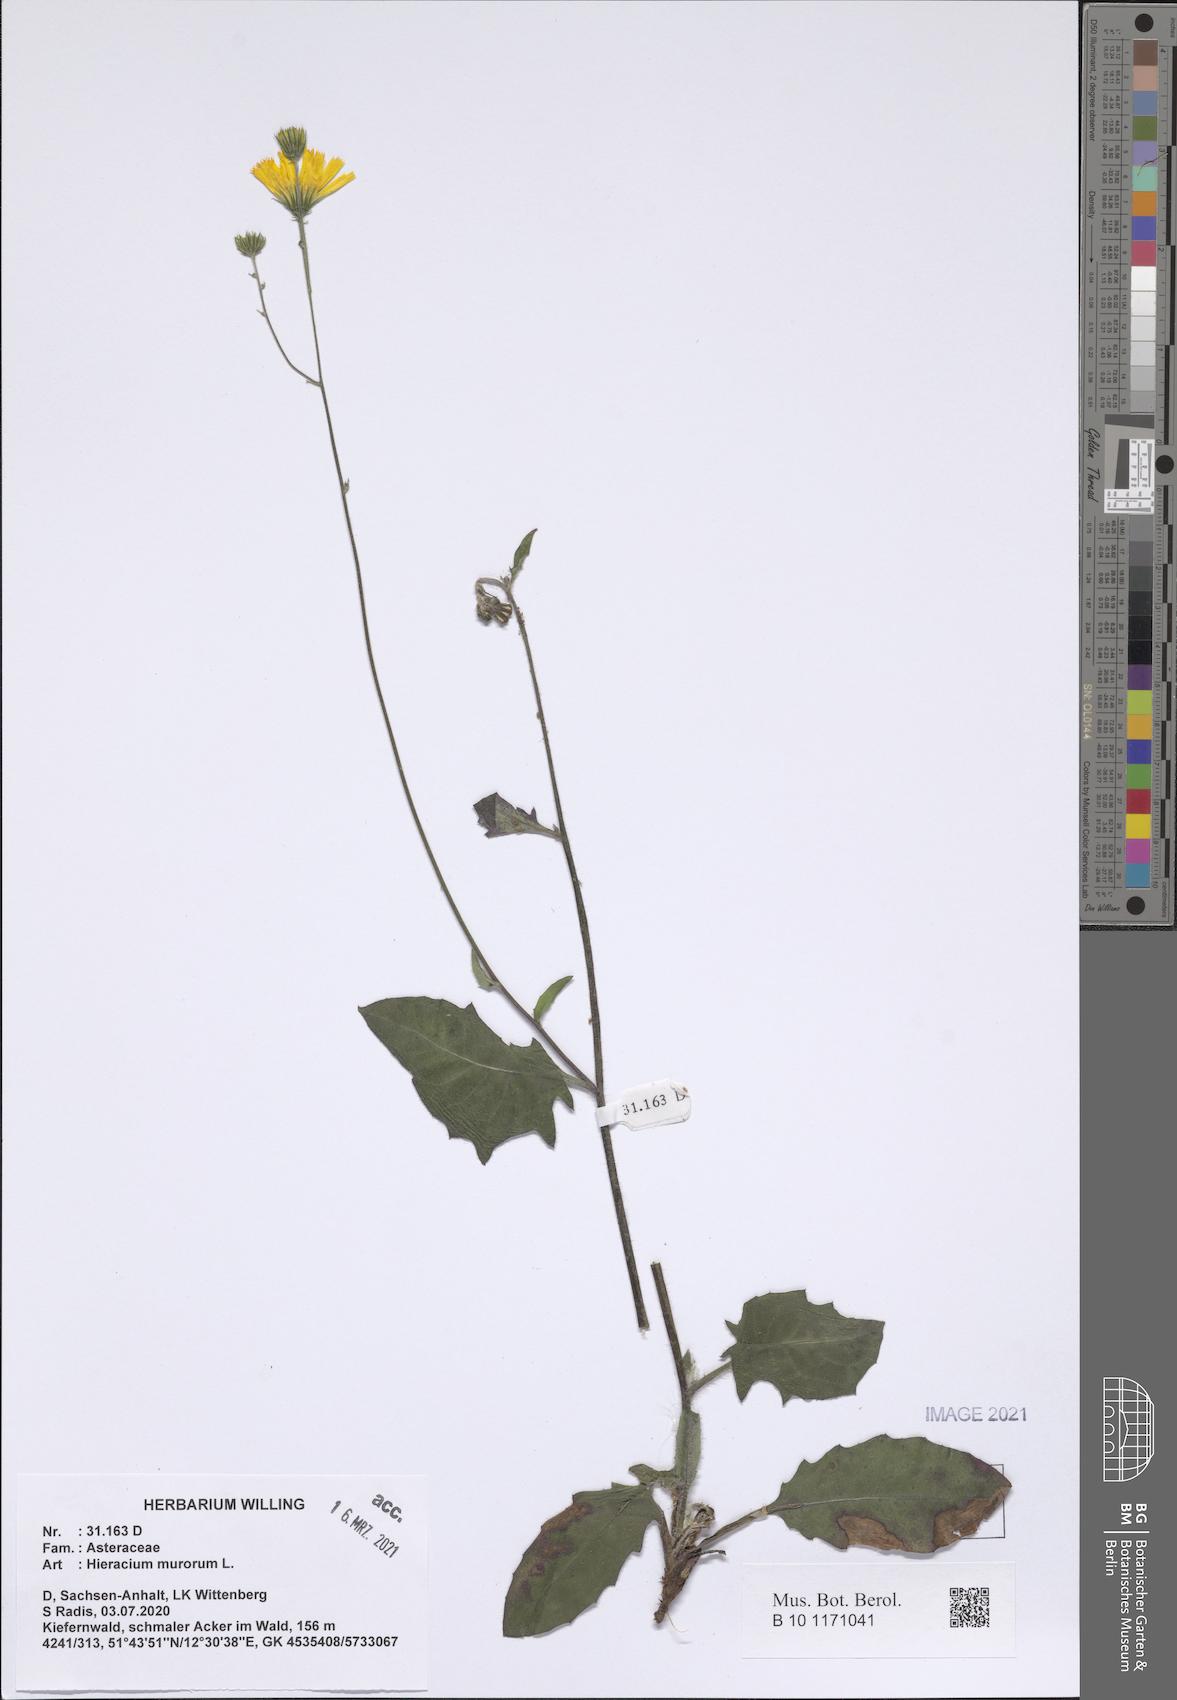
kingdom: Plantae
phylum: Tracheophyta
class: Magnoliopsida
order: Asterales
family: Asteraceae
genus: Hieracium
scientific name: Hieracium murorum
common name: Wall hawkweed
